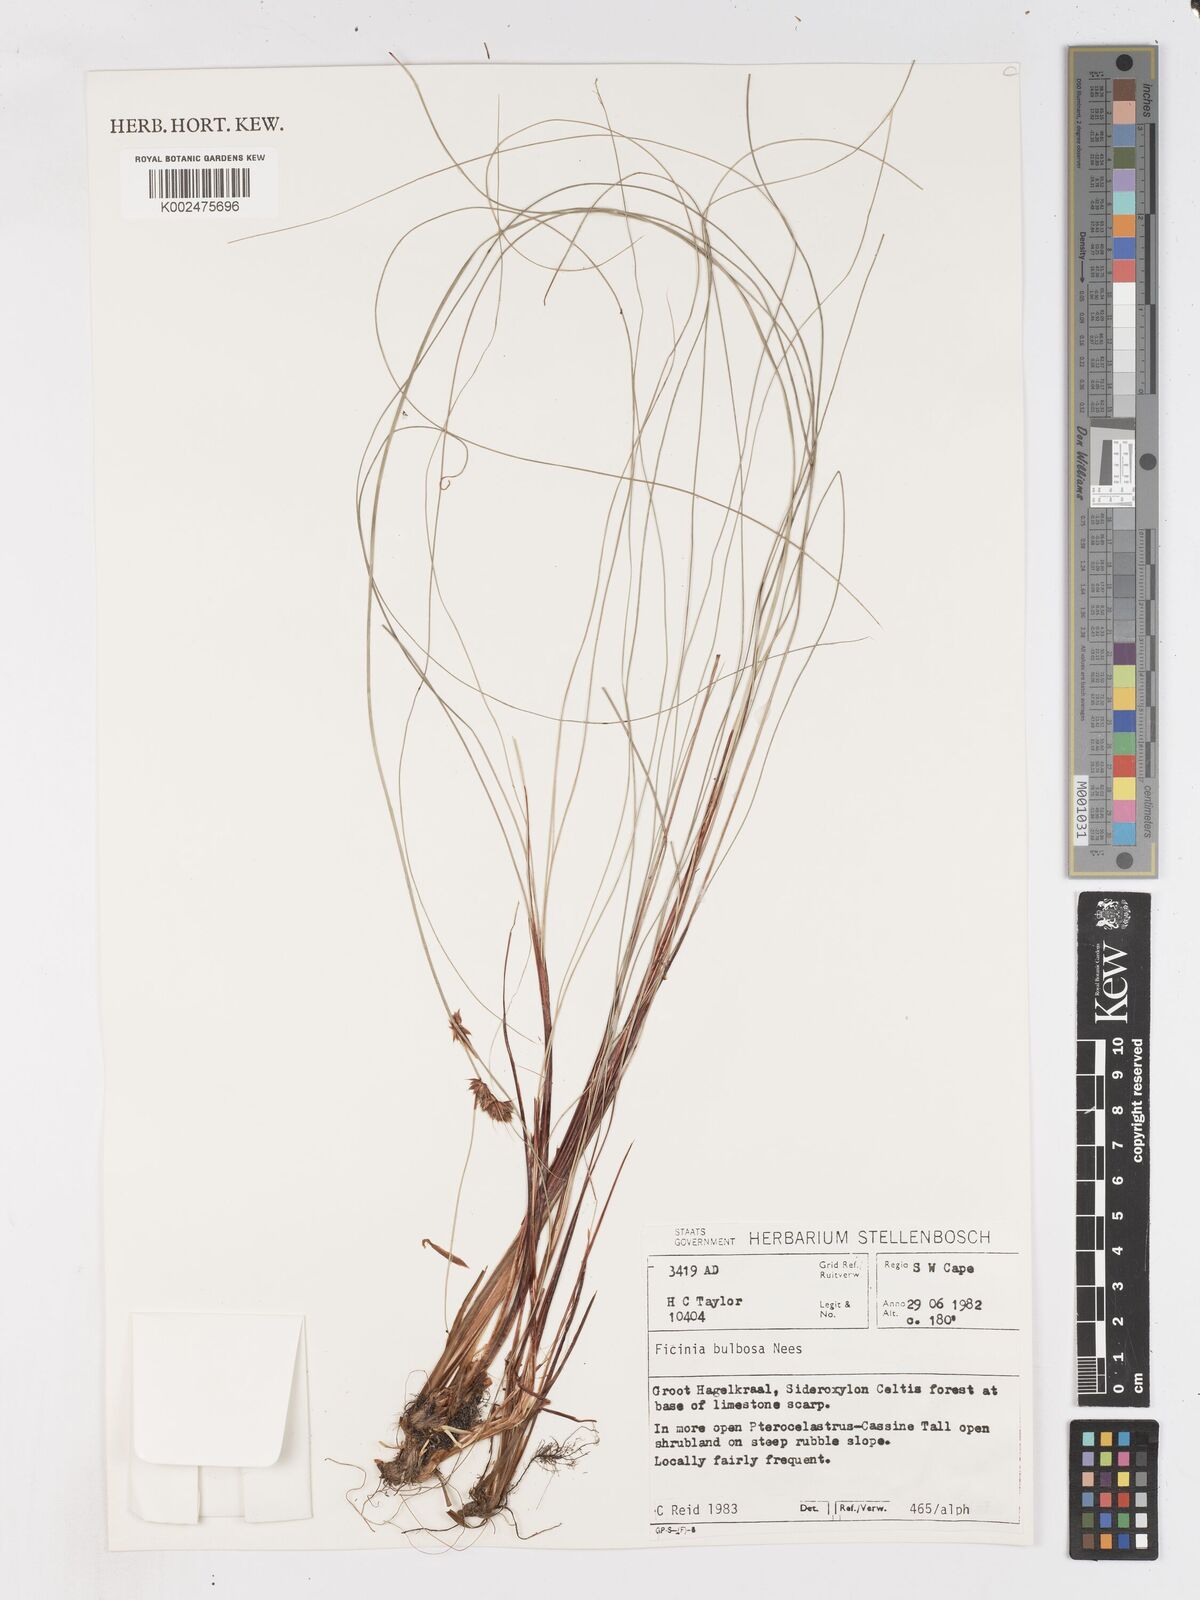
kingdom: Plantae
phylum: Tracheophyta
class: Liliopsida
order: Poales
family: Cyperaceae
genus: Ficinia
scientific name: Ficinia bulbosa
